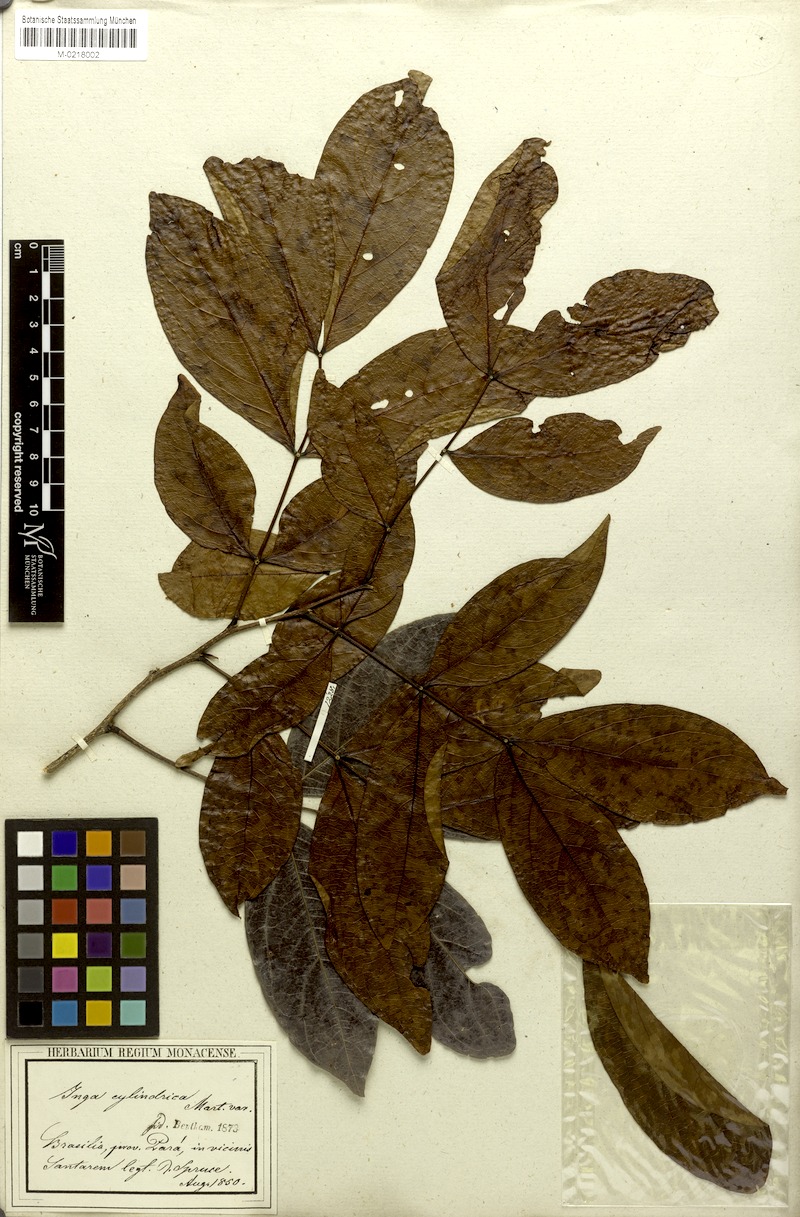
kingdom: Plantae
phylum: Tracheophyta
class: Magnoliopsida
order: Fabales
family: Fabaceae
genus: Inga
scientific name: Inga cylindrica
